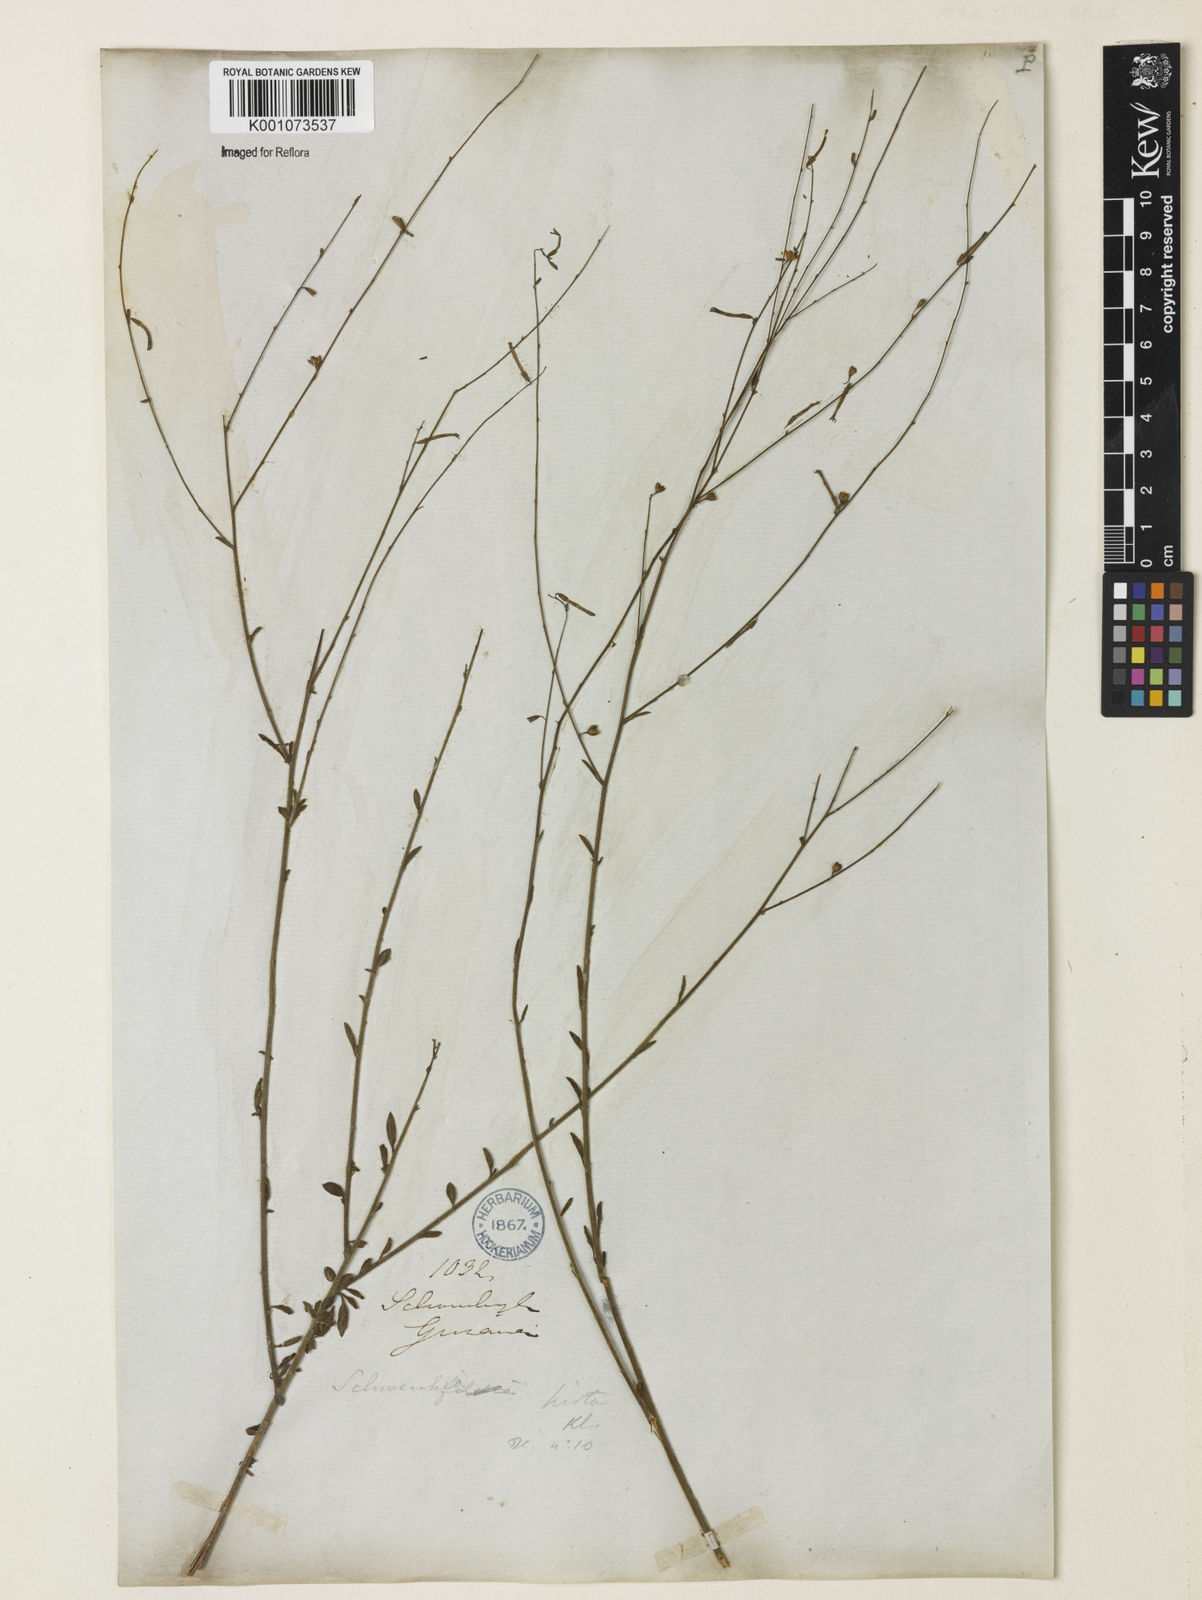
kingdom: Plantae
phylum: Tracheophyta
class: Magnoliopsida
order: Solanales
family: Solanaceae
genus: Schwenckia
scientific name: Schwenckia americana
